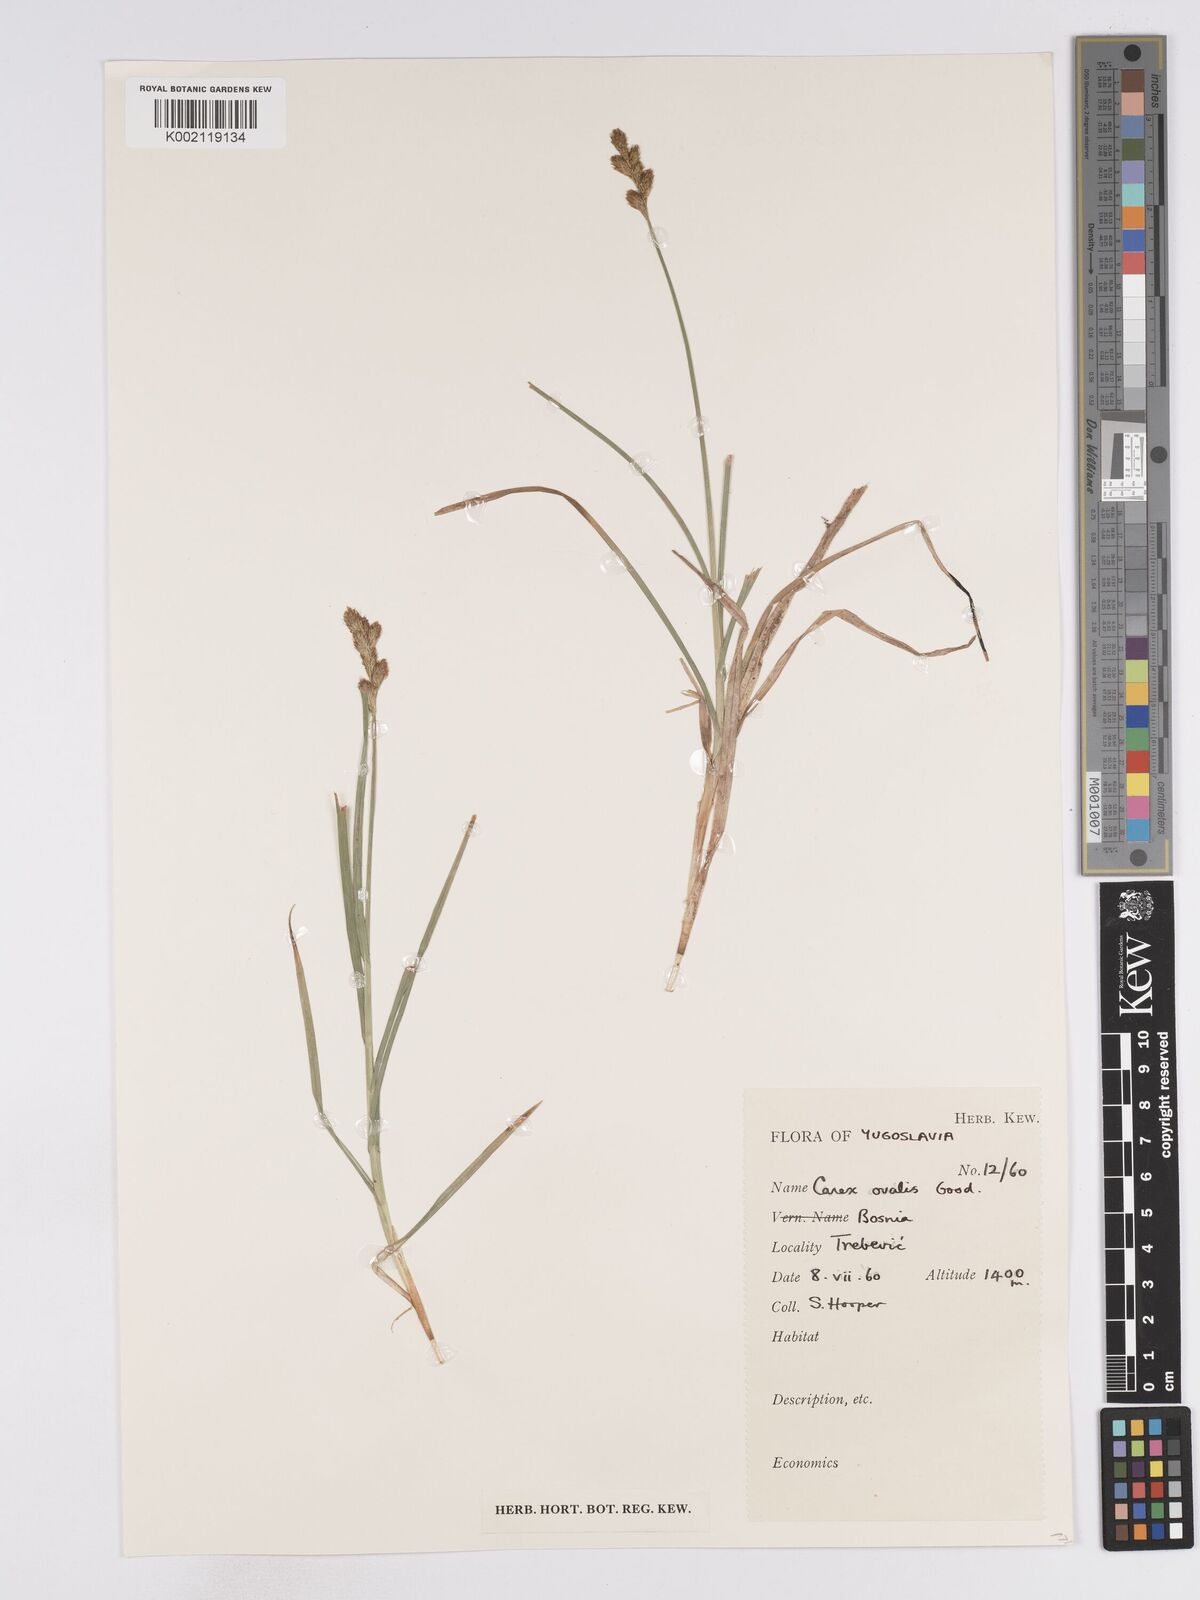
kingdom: Plantae
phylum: Tracheophyta
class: Liliopsida
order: Poales
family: Cyperaceae
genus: Carex
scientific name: Carex leporina
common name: Oval sedge
